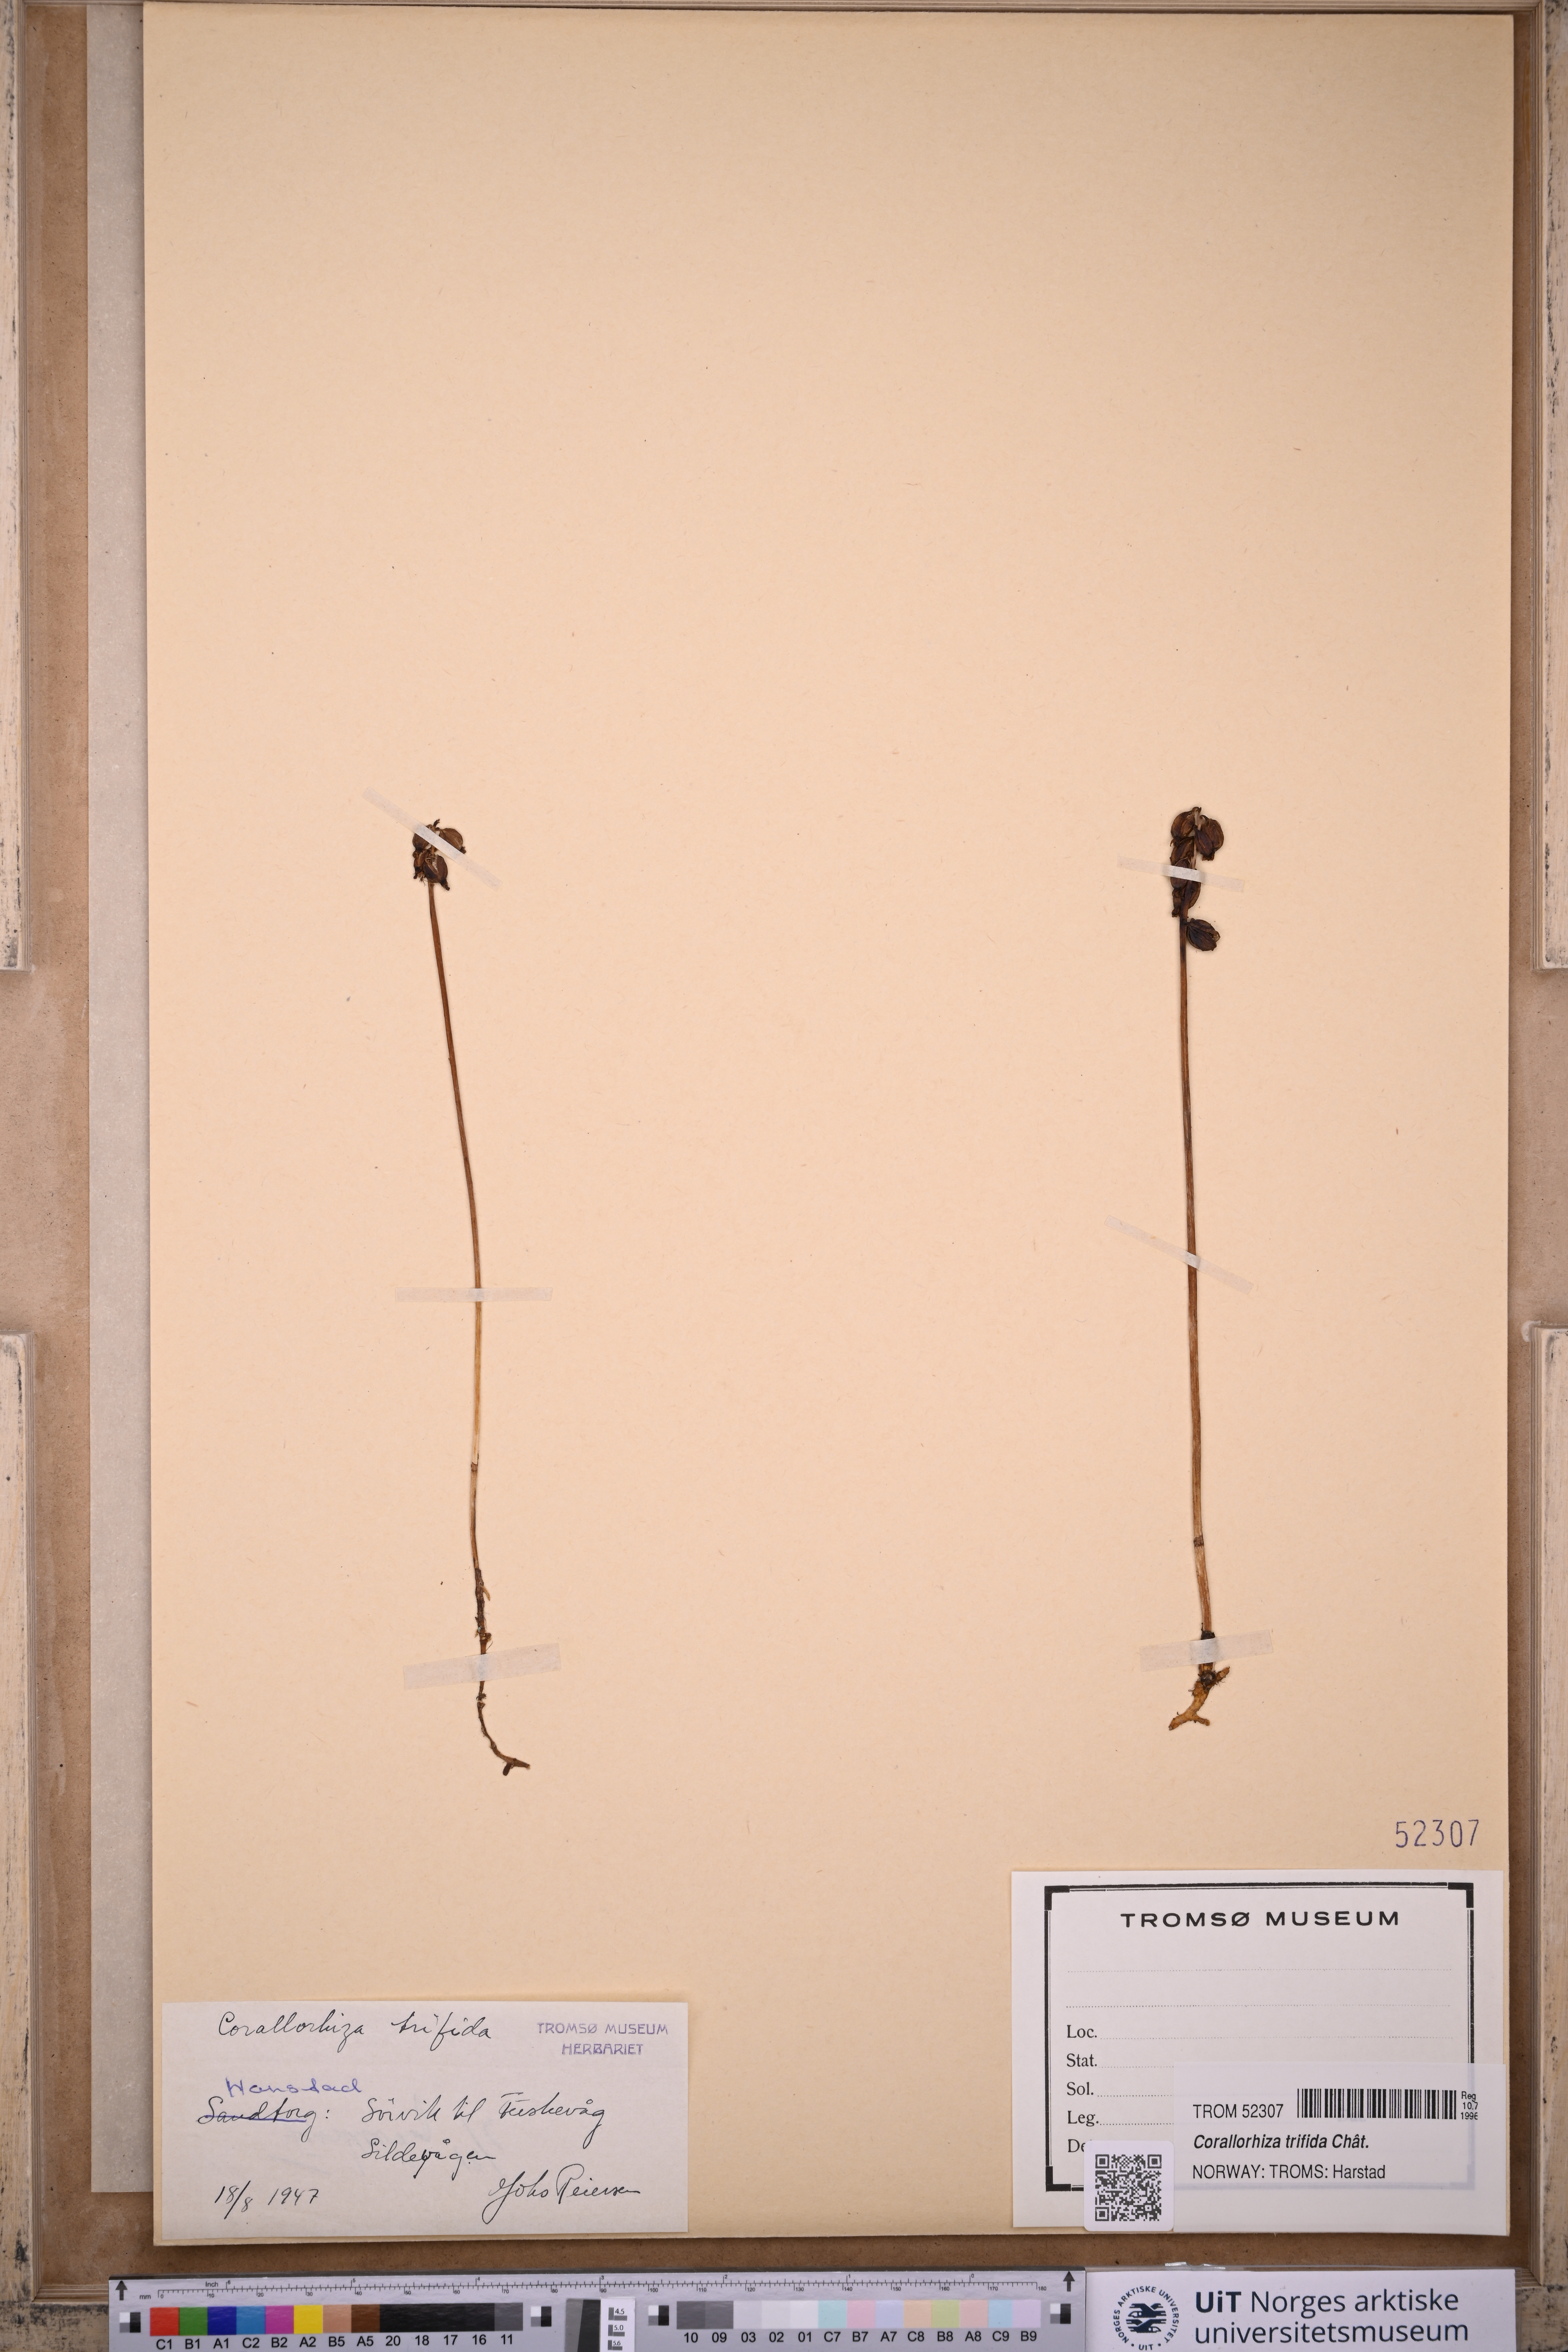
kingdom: Plantae
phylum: Tracheophyta
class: Liliopsida
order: Asparagales
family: Orchidaceae
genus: Corallorhiza
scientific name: Corallorhiza trifida
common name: Yellow coralroot
